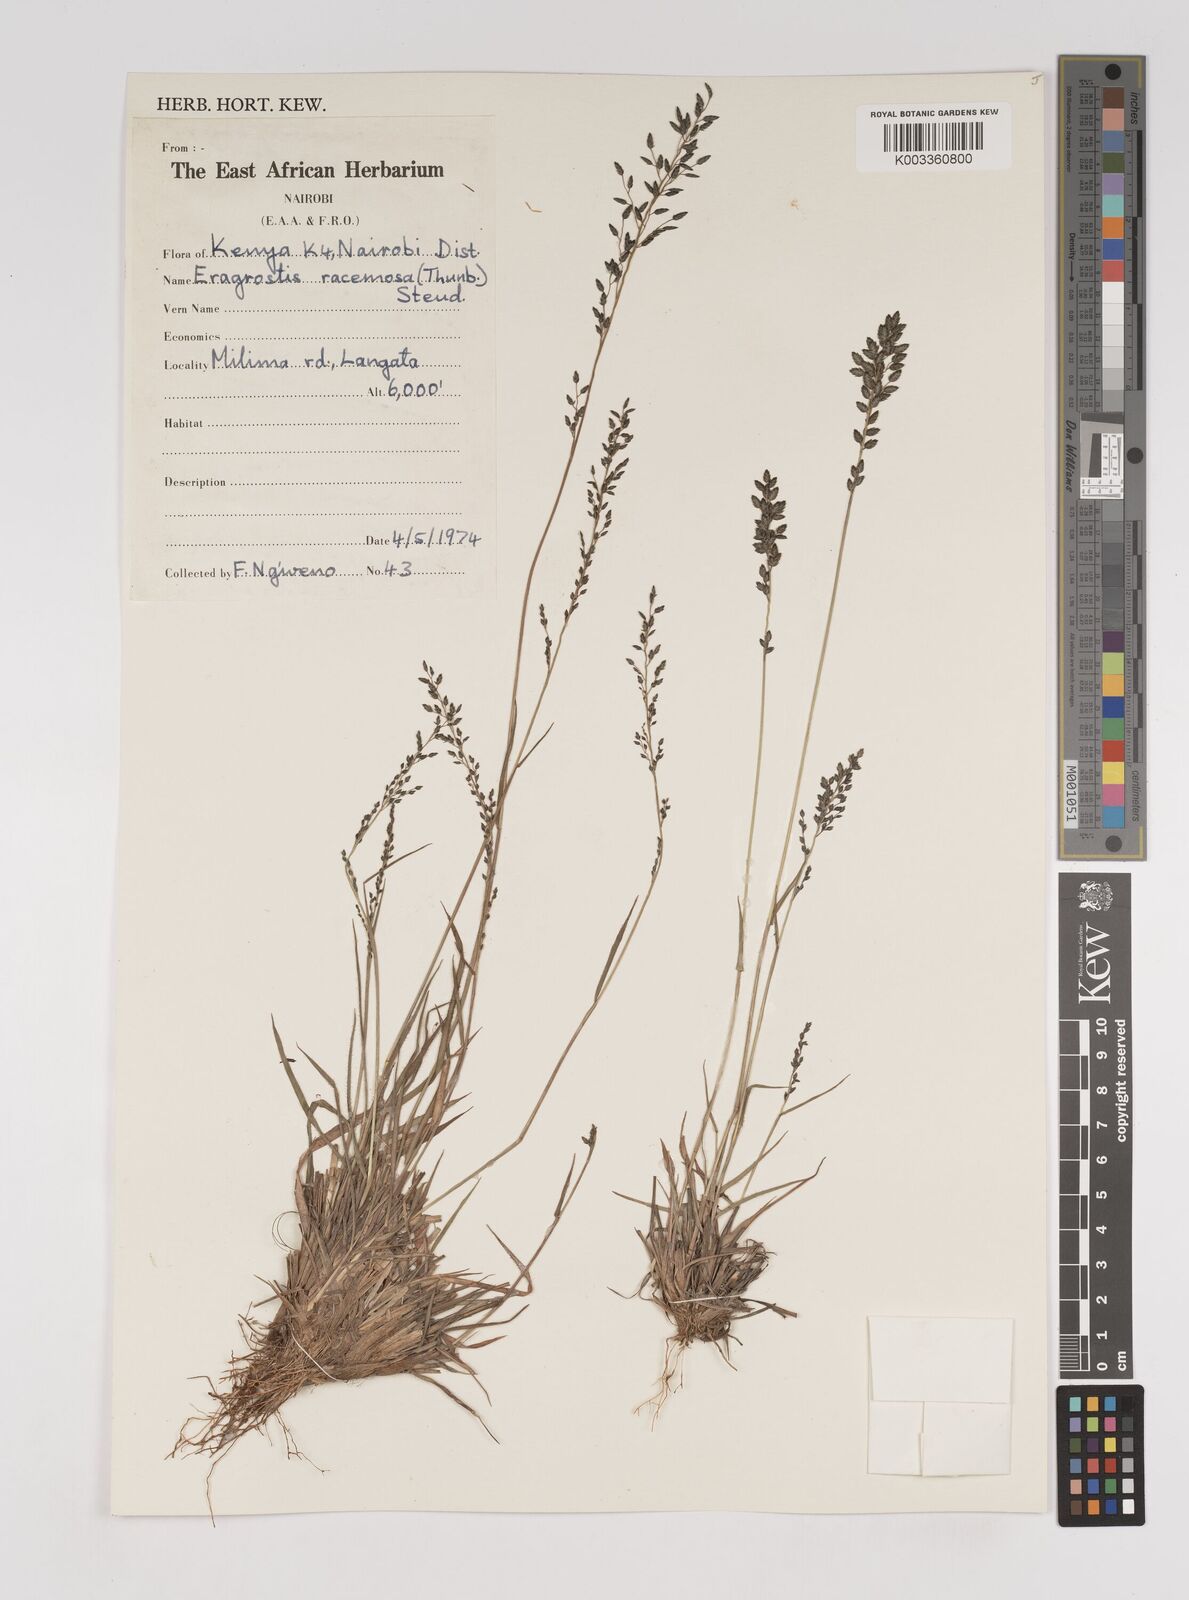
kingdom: Plantae
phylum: Tracheophyta
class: Liliopsida
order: Poales
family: Poaceae
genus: Eragrostis
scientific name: Eragrostis racemosa
